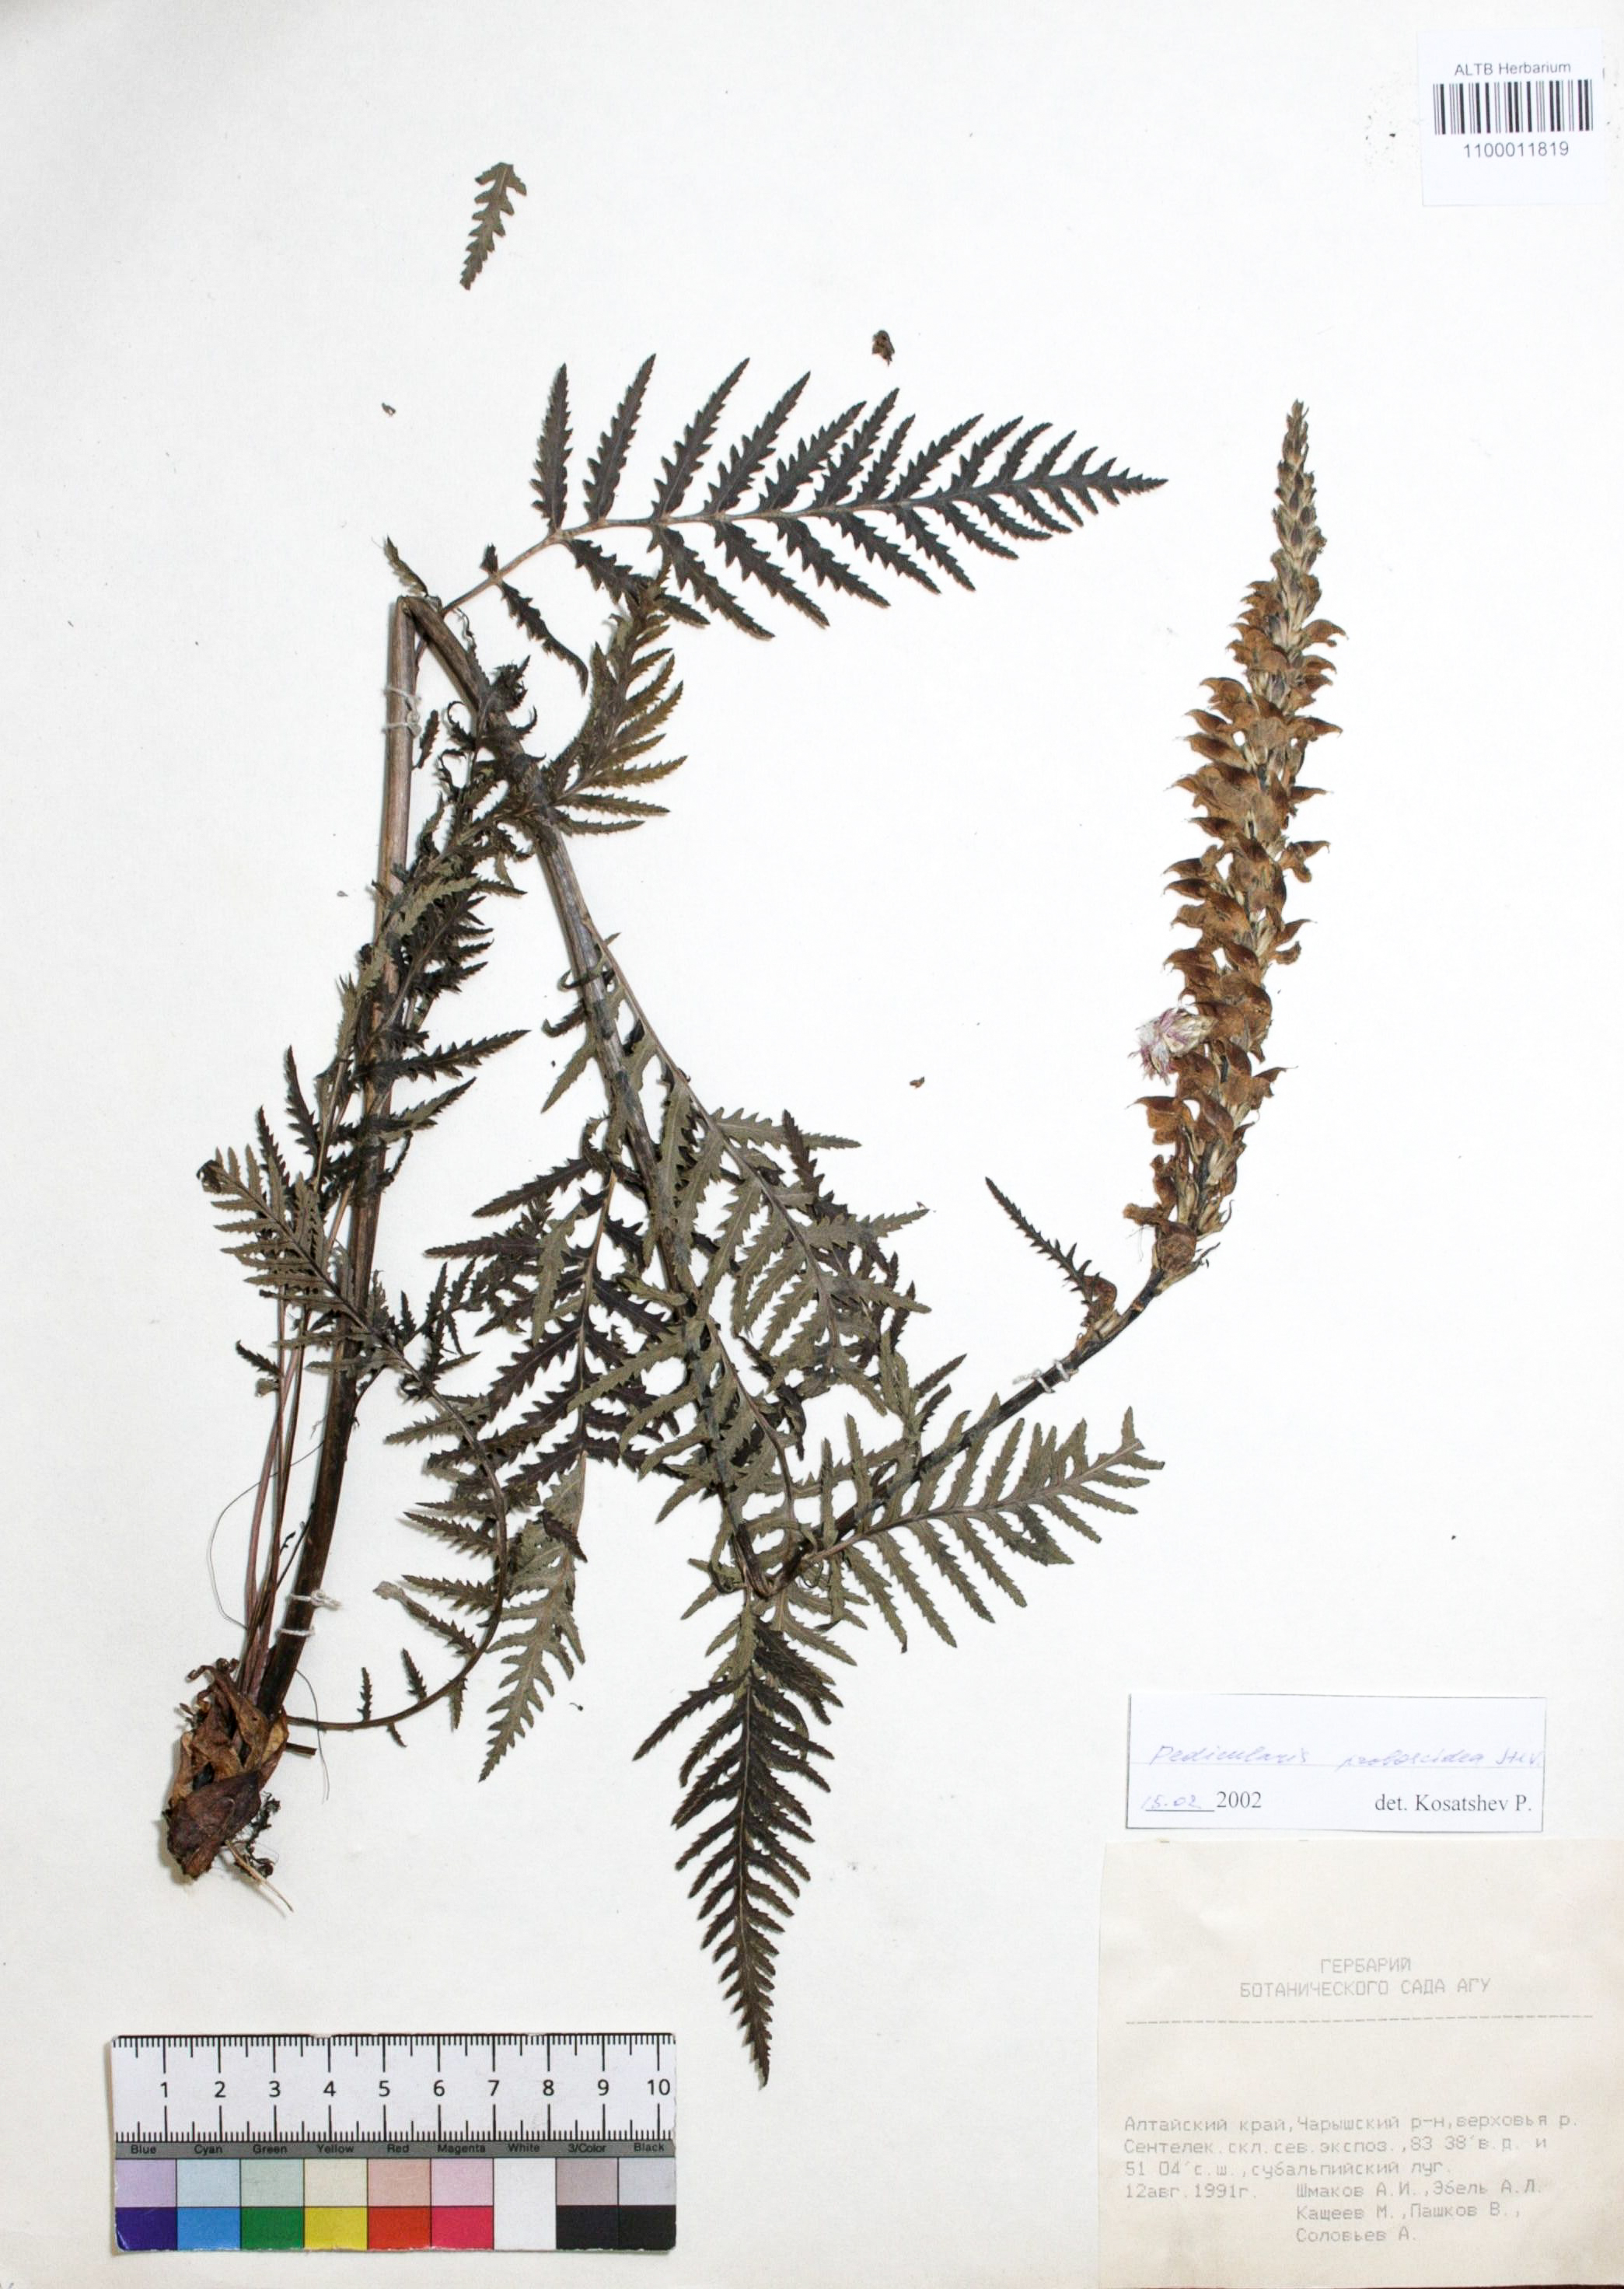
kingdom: Plantae
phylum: Tracheophyta
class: Magnoliopsida
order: Lamiales
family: Orobanchaceae
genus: Pedicularis
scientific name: Pedicularis proboscidea
